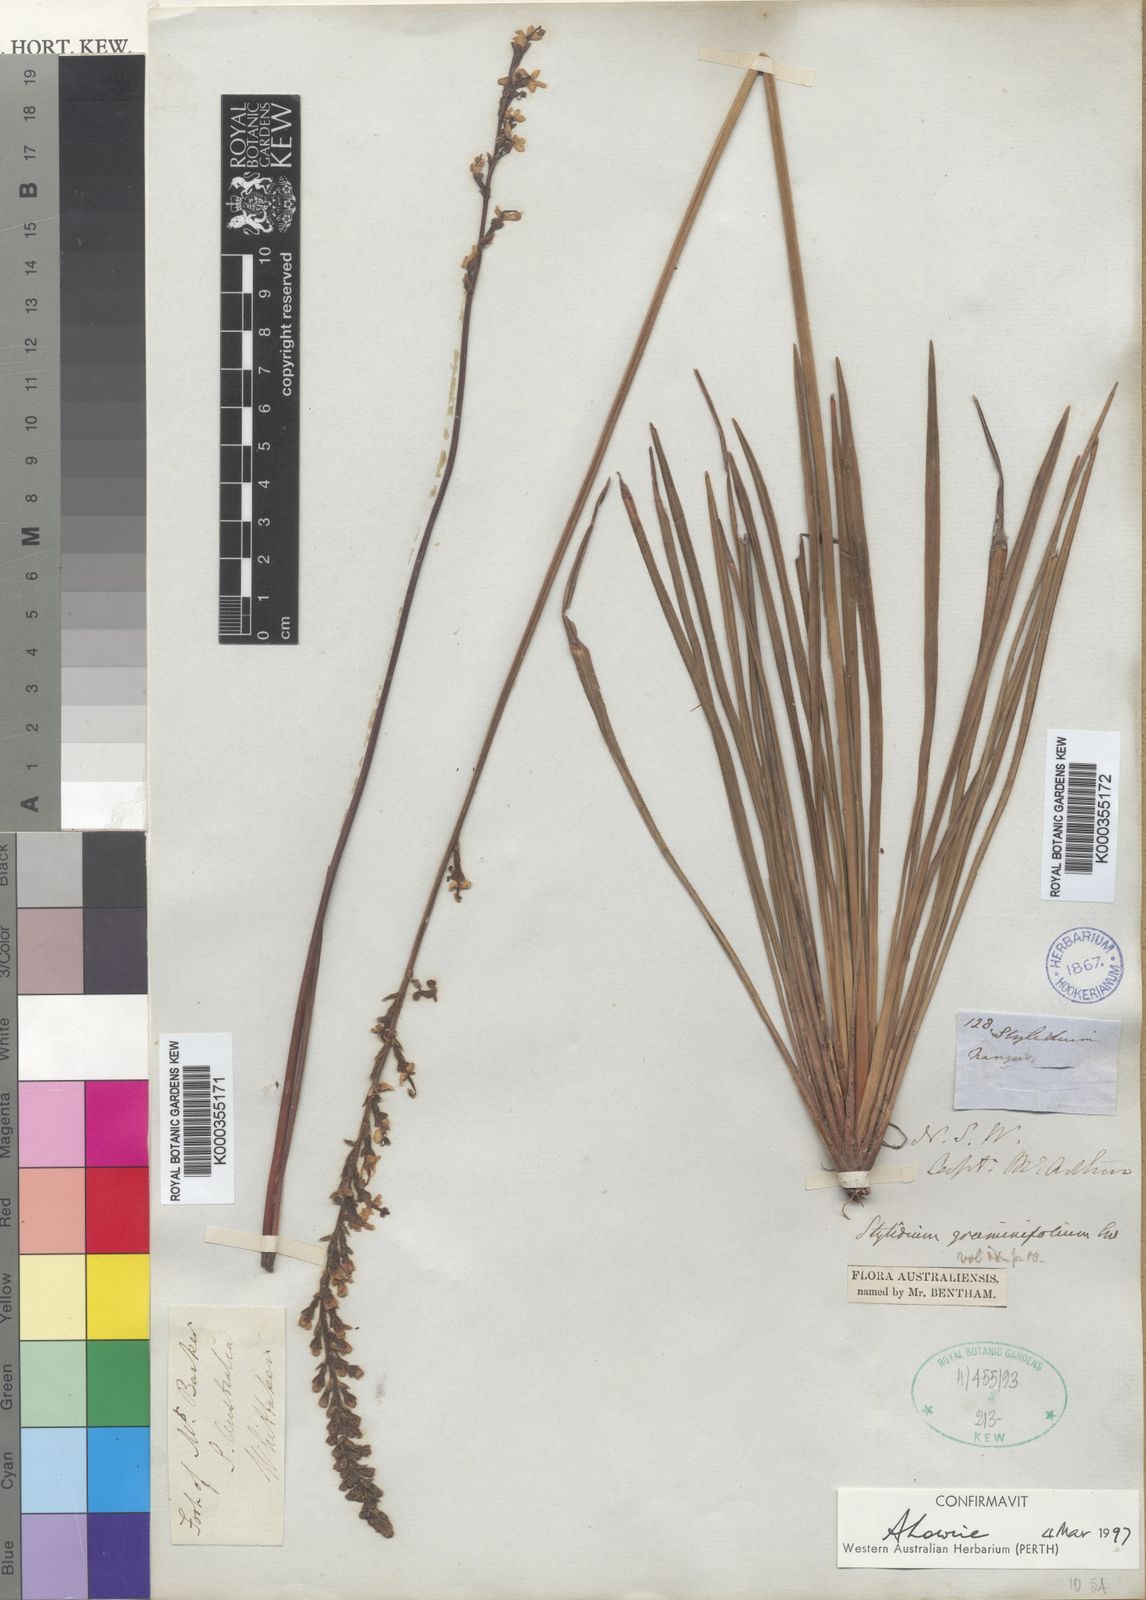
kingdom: Plantae
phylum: Tracheophyta
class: Magnoliopsida
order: Asterales
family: Stylidiaceae
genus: Stylidium
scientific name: Stylidium graminifolium
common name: Grass triggerplant
